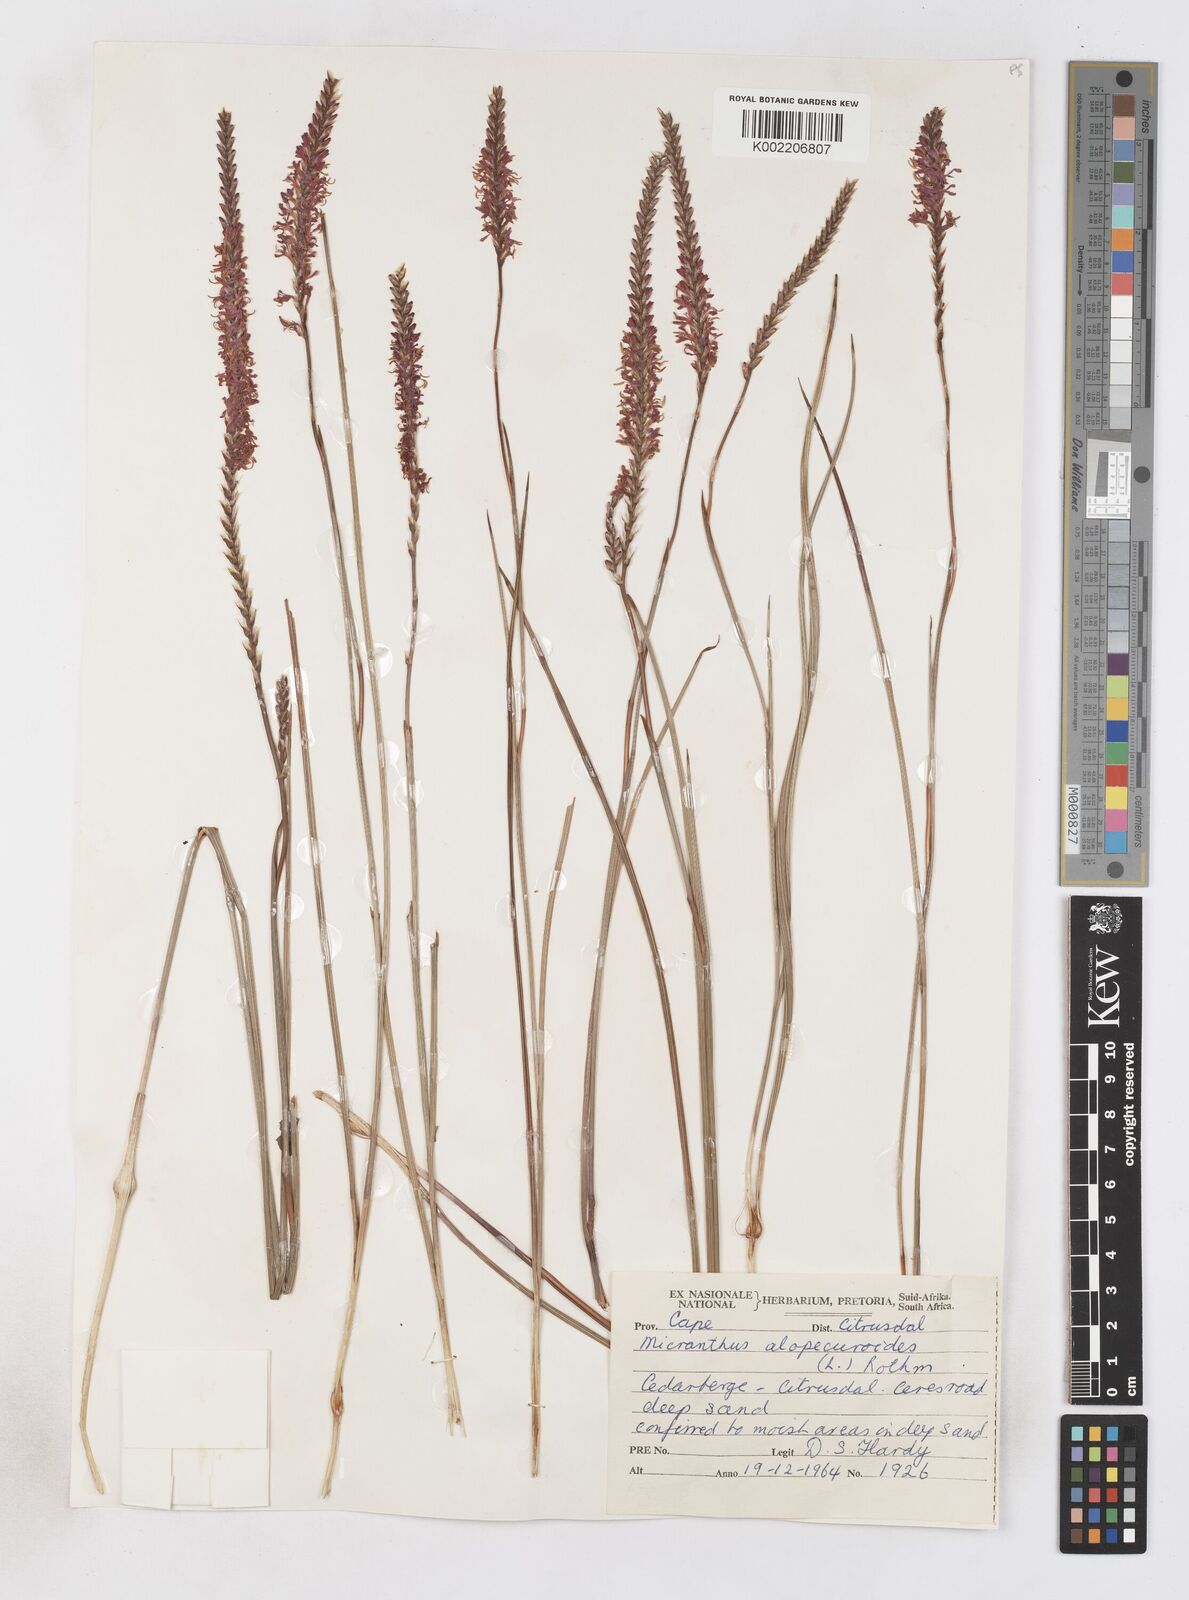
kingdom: Plantae
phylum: Tracheophyta
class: Liliopsida
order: Asparagales
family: Iridaceae
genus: Micranthus
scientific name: Micranthus alopecuroides
